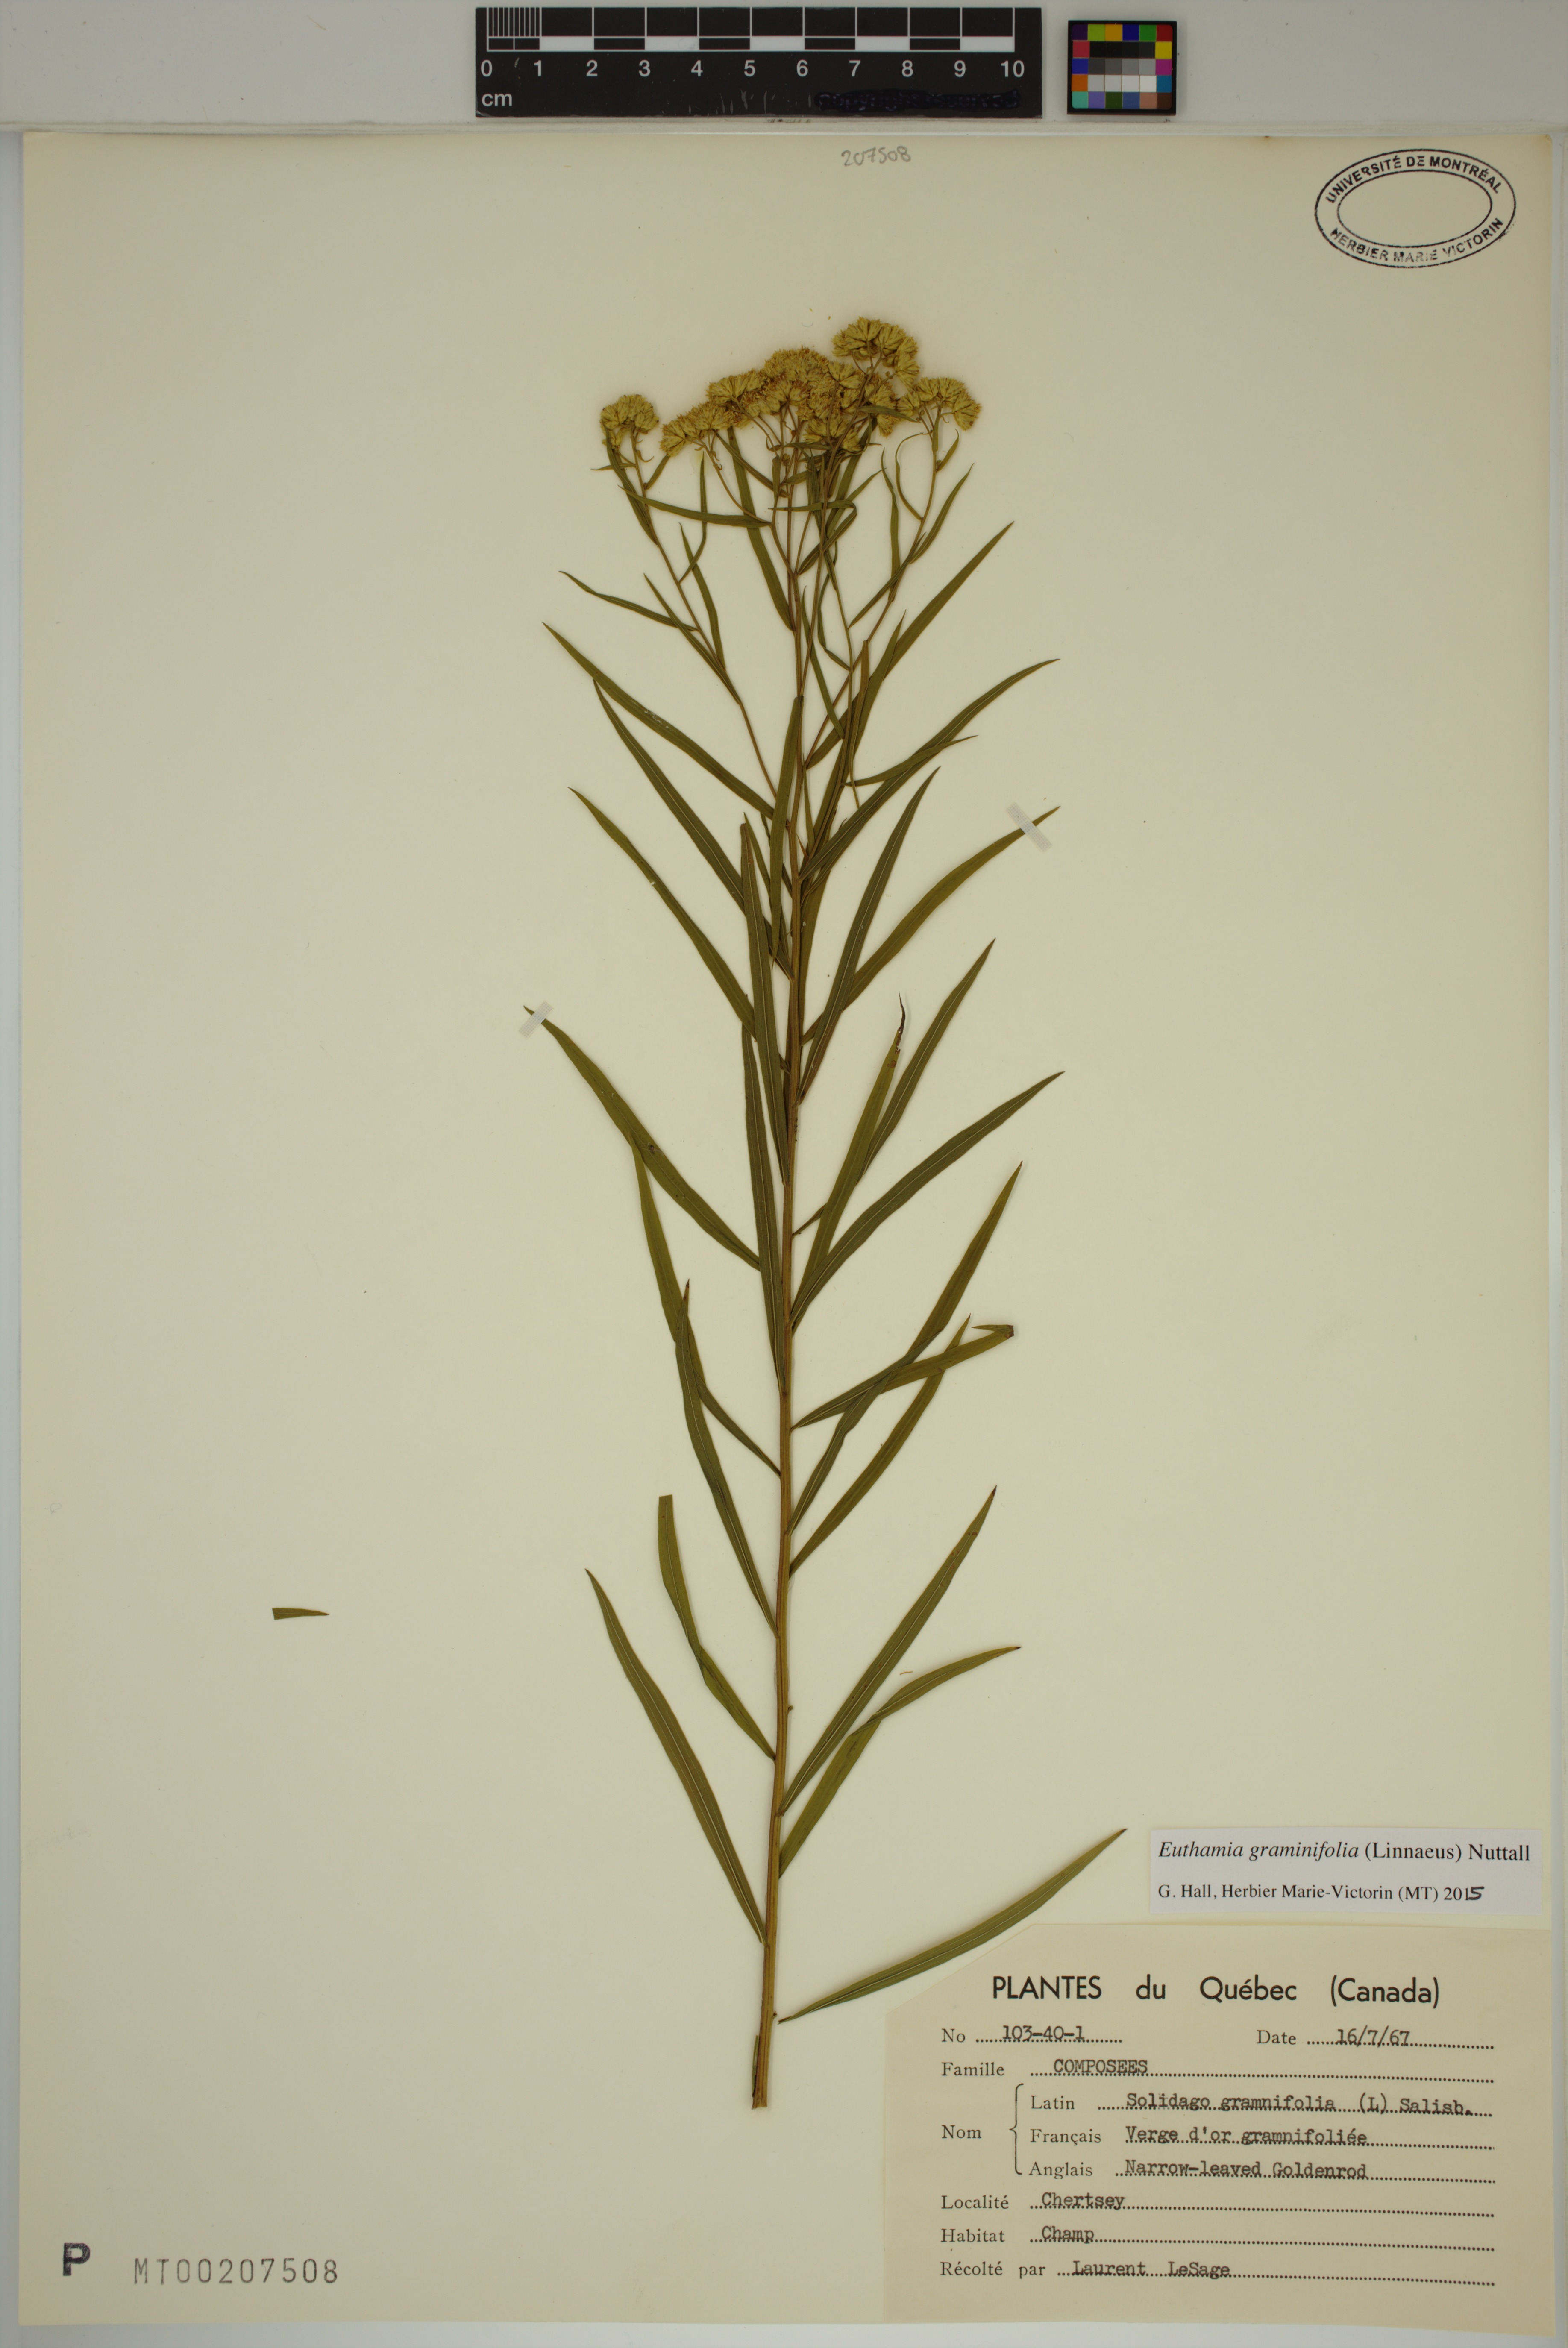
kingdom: Plantae
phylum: Tracheophyta
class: Magnoliopsida
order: Asterales
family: Asteraceae
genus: Euthamia
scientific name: Euthamia graminifolia
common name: Common goldentop
